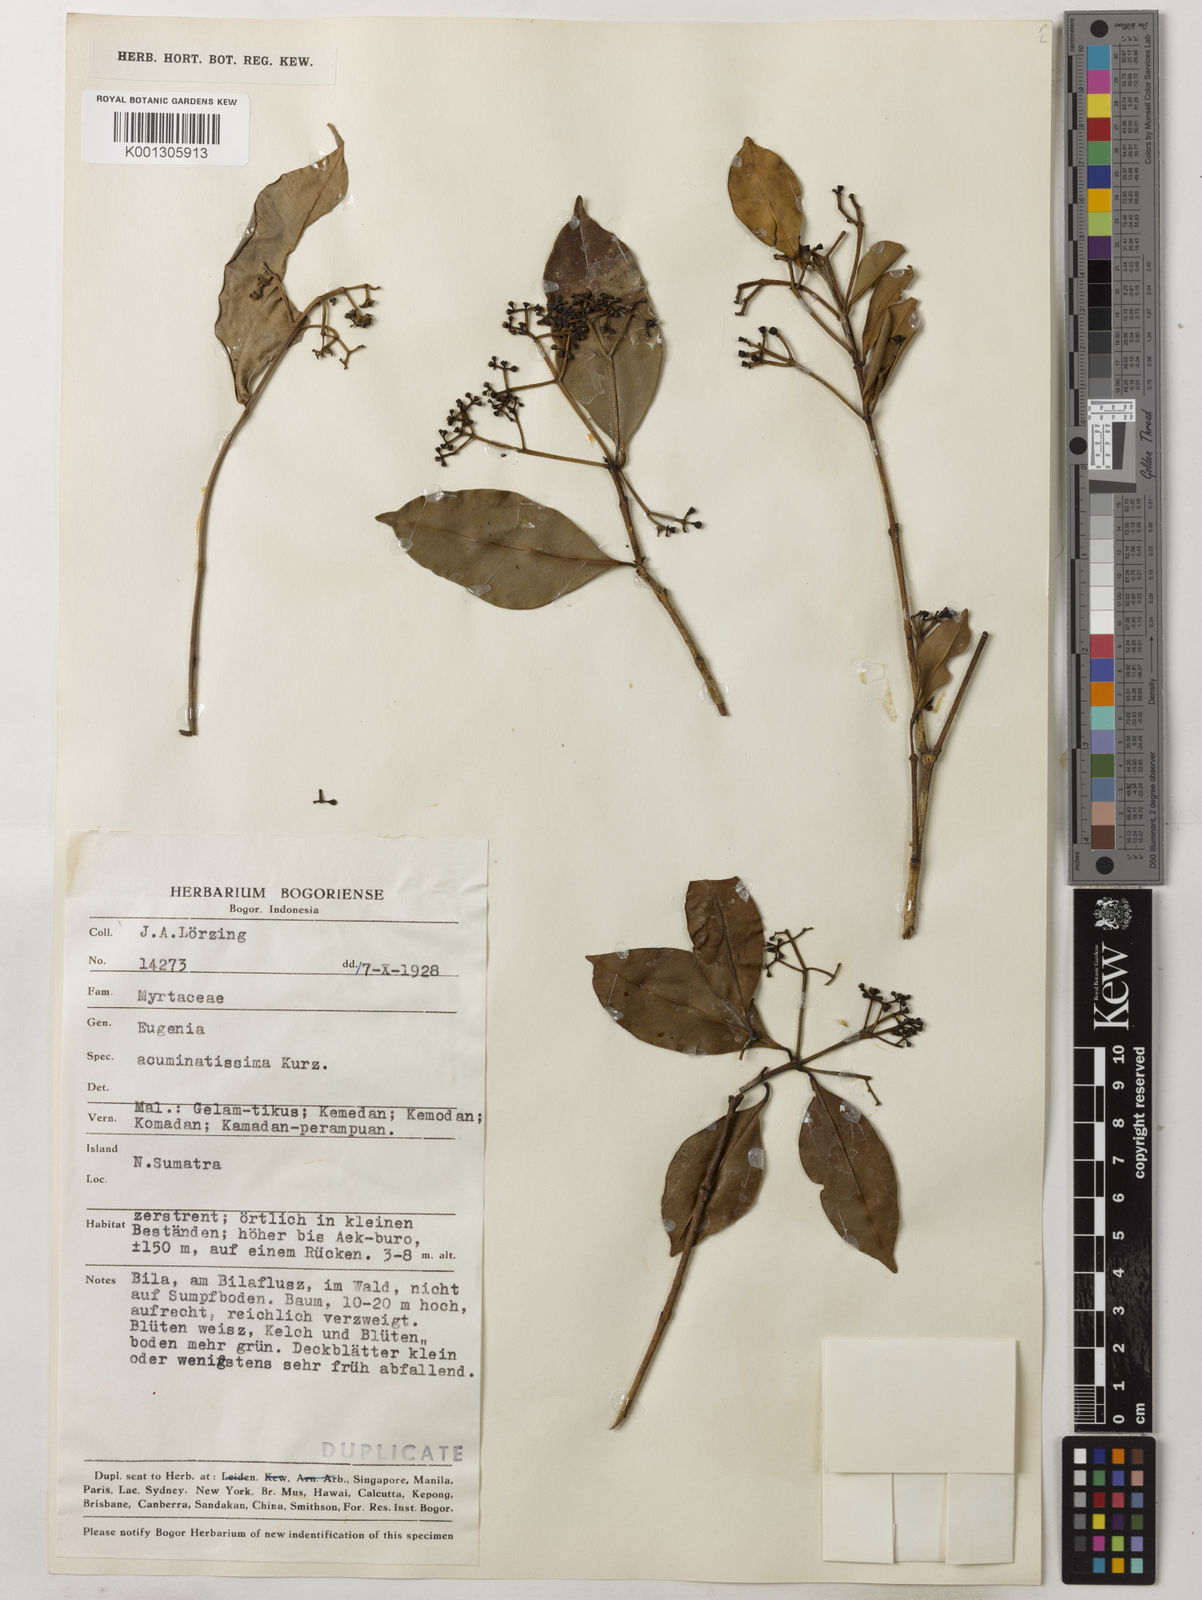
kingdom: Plantae
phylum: Tracheophyta
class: Magnoliopsida
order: Myrtales
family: Myrtaceae
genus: Syzygium
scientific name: Syzygium acuminatissimum
